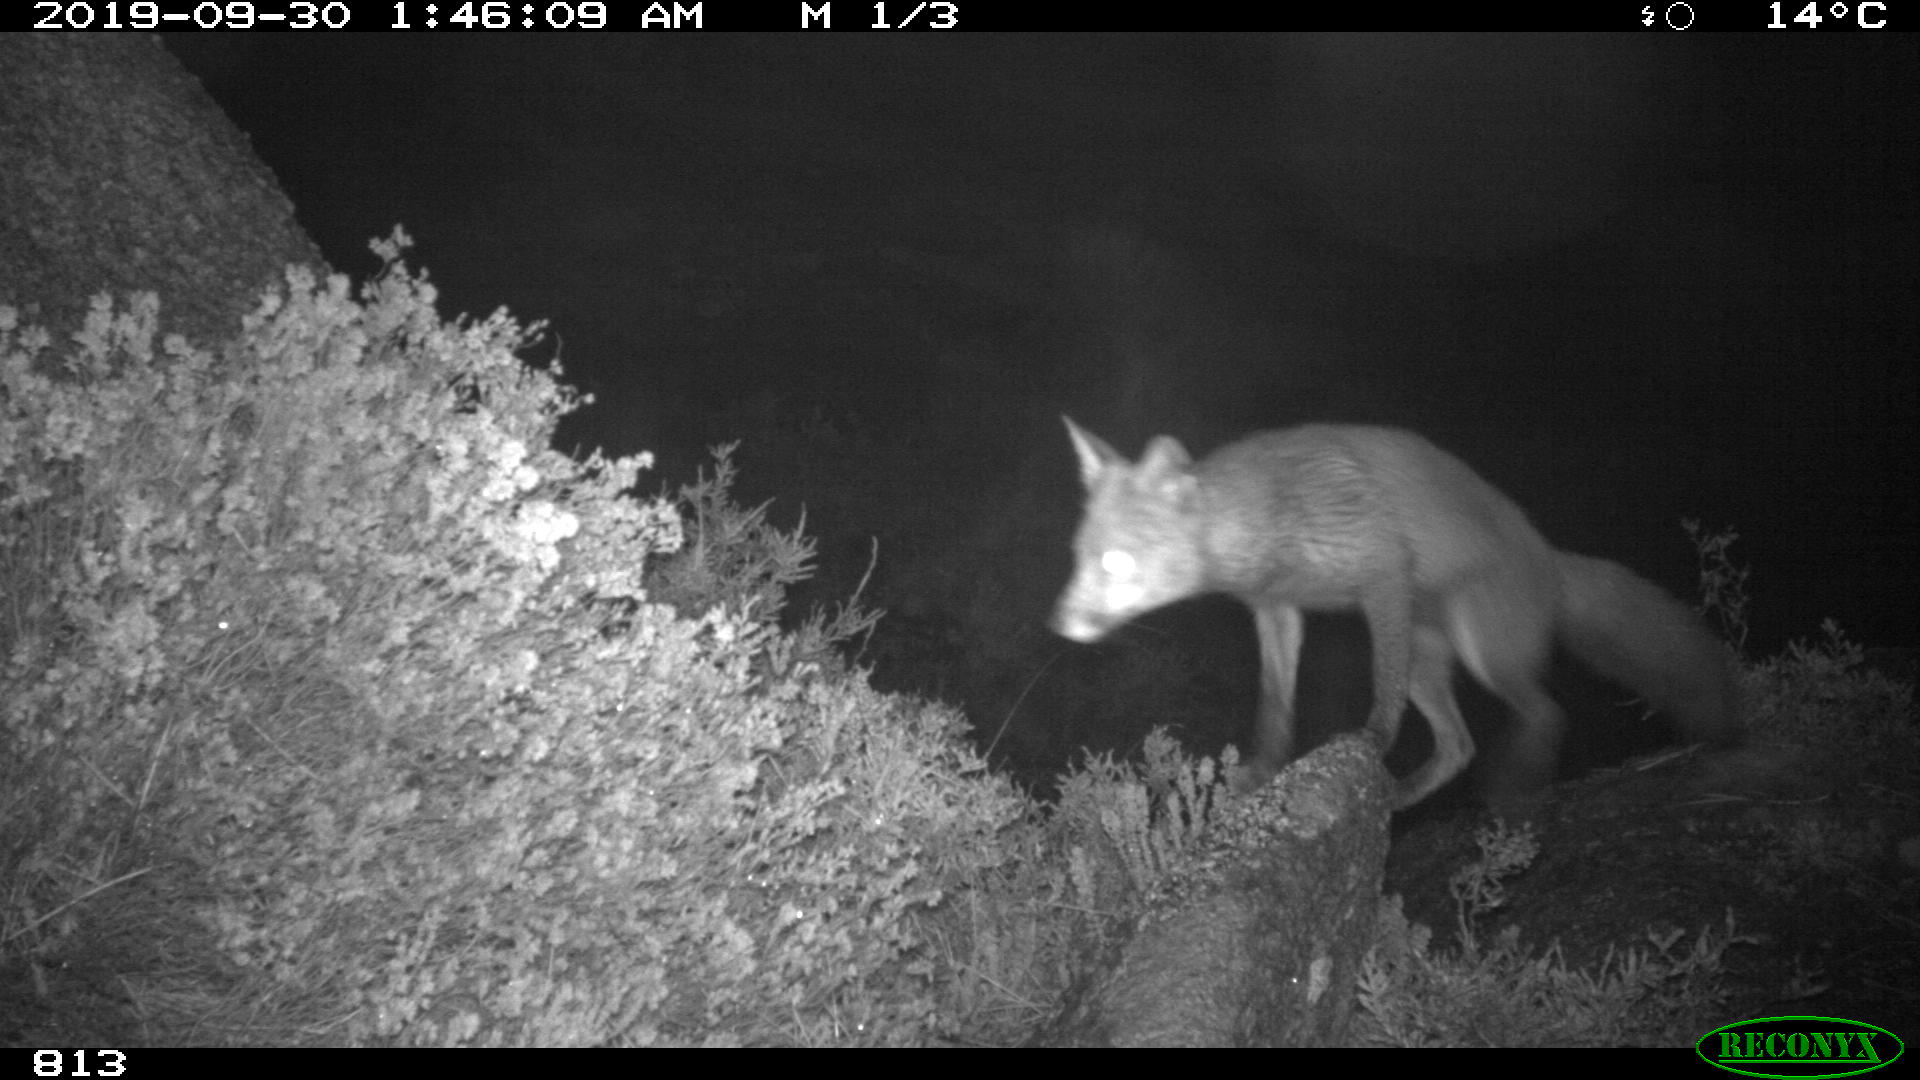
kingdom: Animalia
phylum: Chordata
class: Mammalia
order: Carnivora
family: Canidae
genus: Vulpes
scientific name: Vulpes vulpes
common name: Red fox
